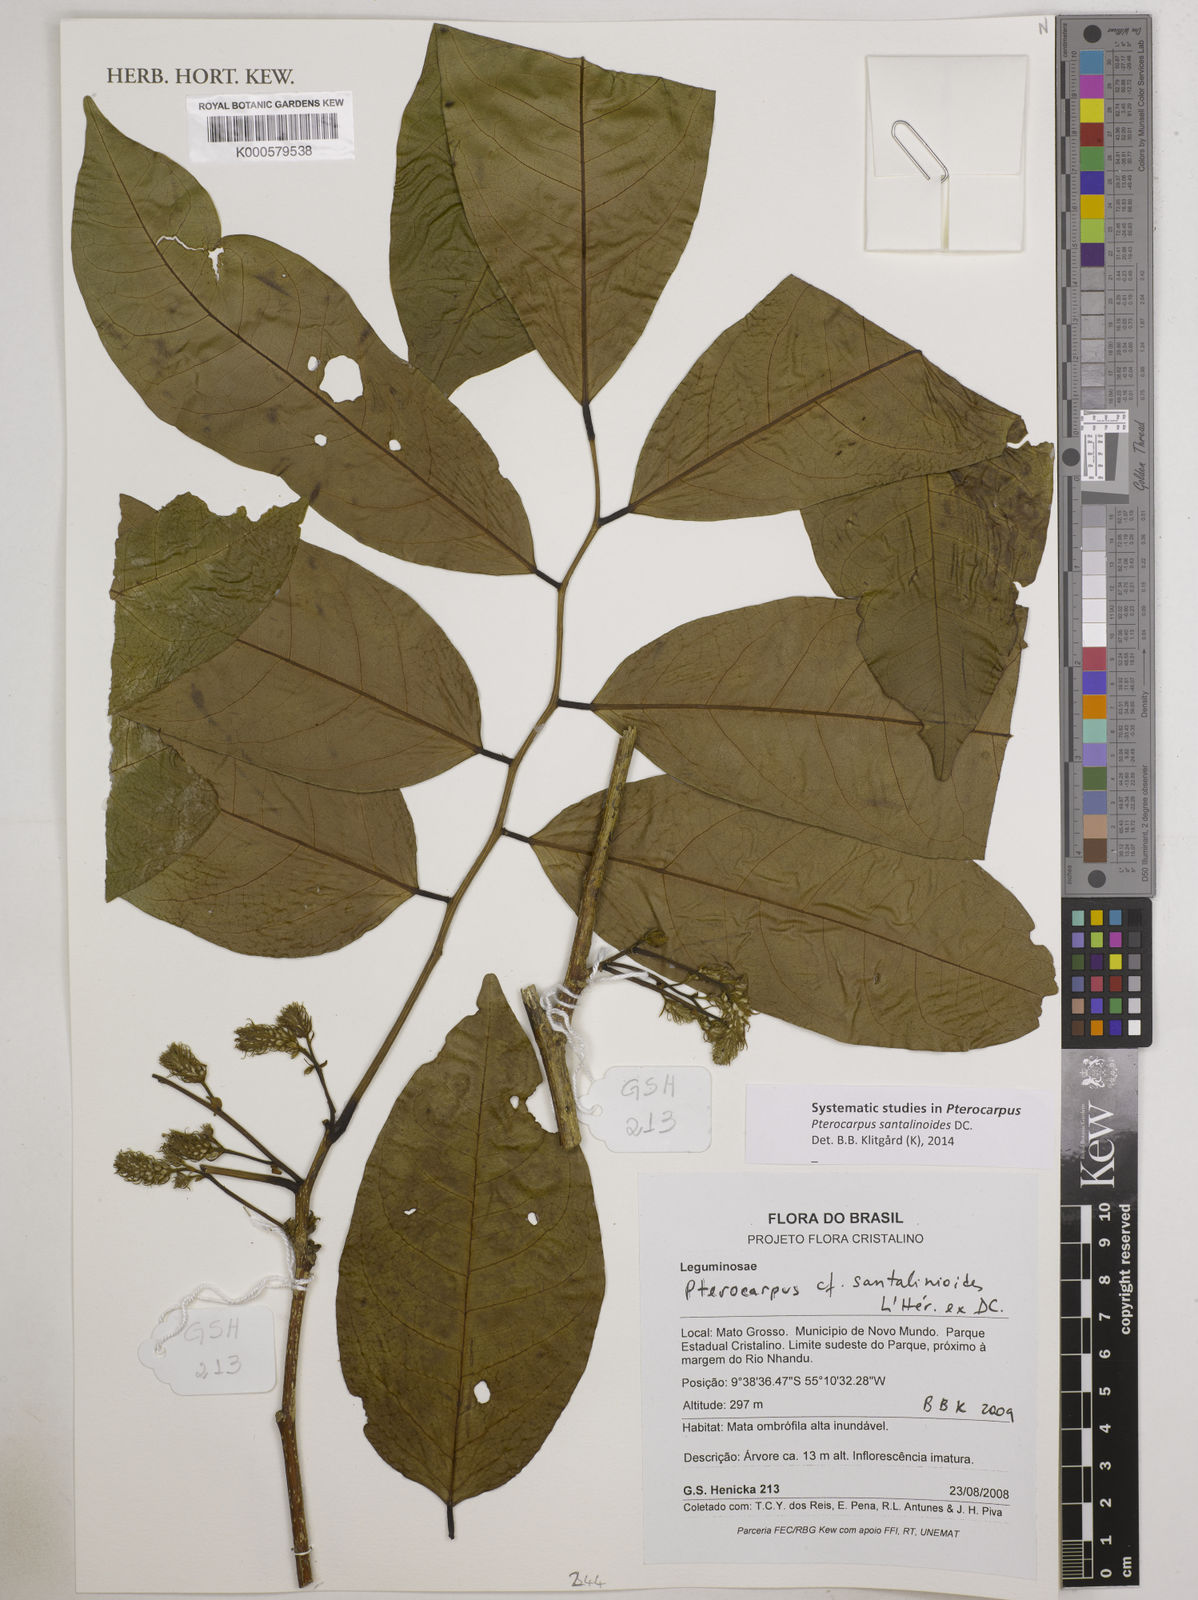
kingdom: Plantae
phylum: Tracheophyta
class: Magnoliopsida
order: Fabales
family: Fabaceae
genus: Pterocarpus
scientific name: Pterocarpus santalinoides
